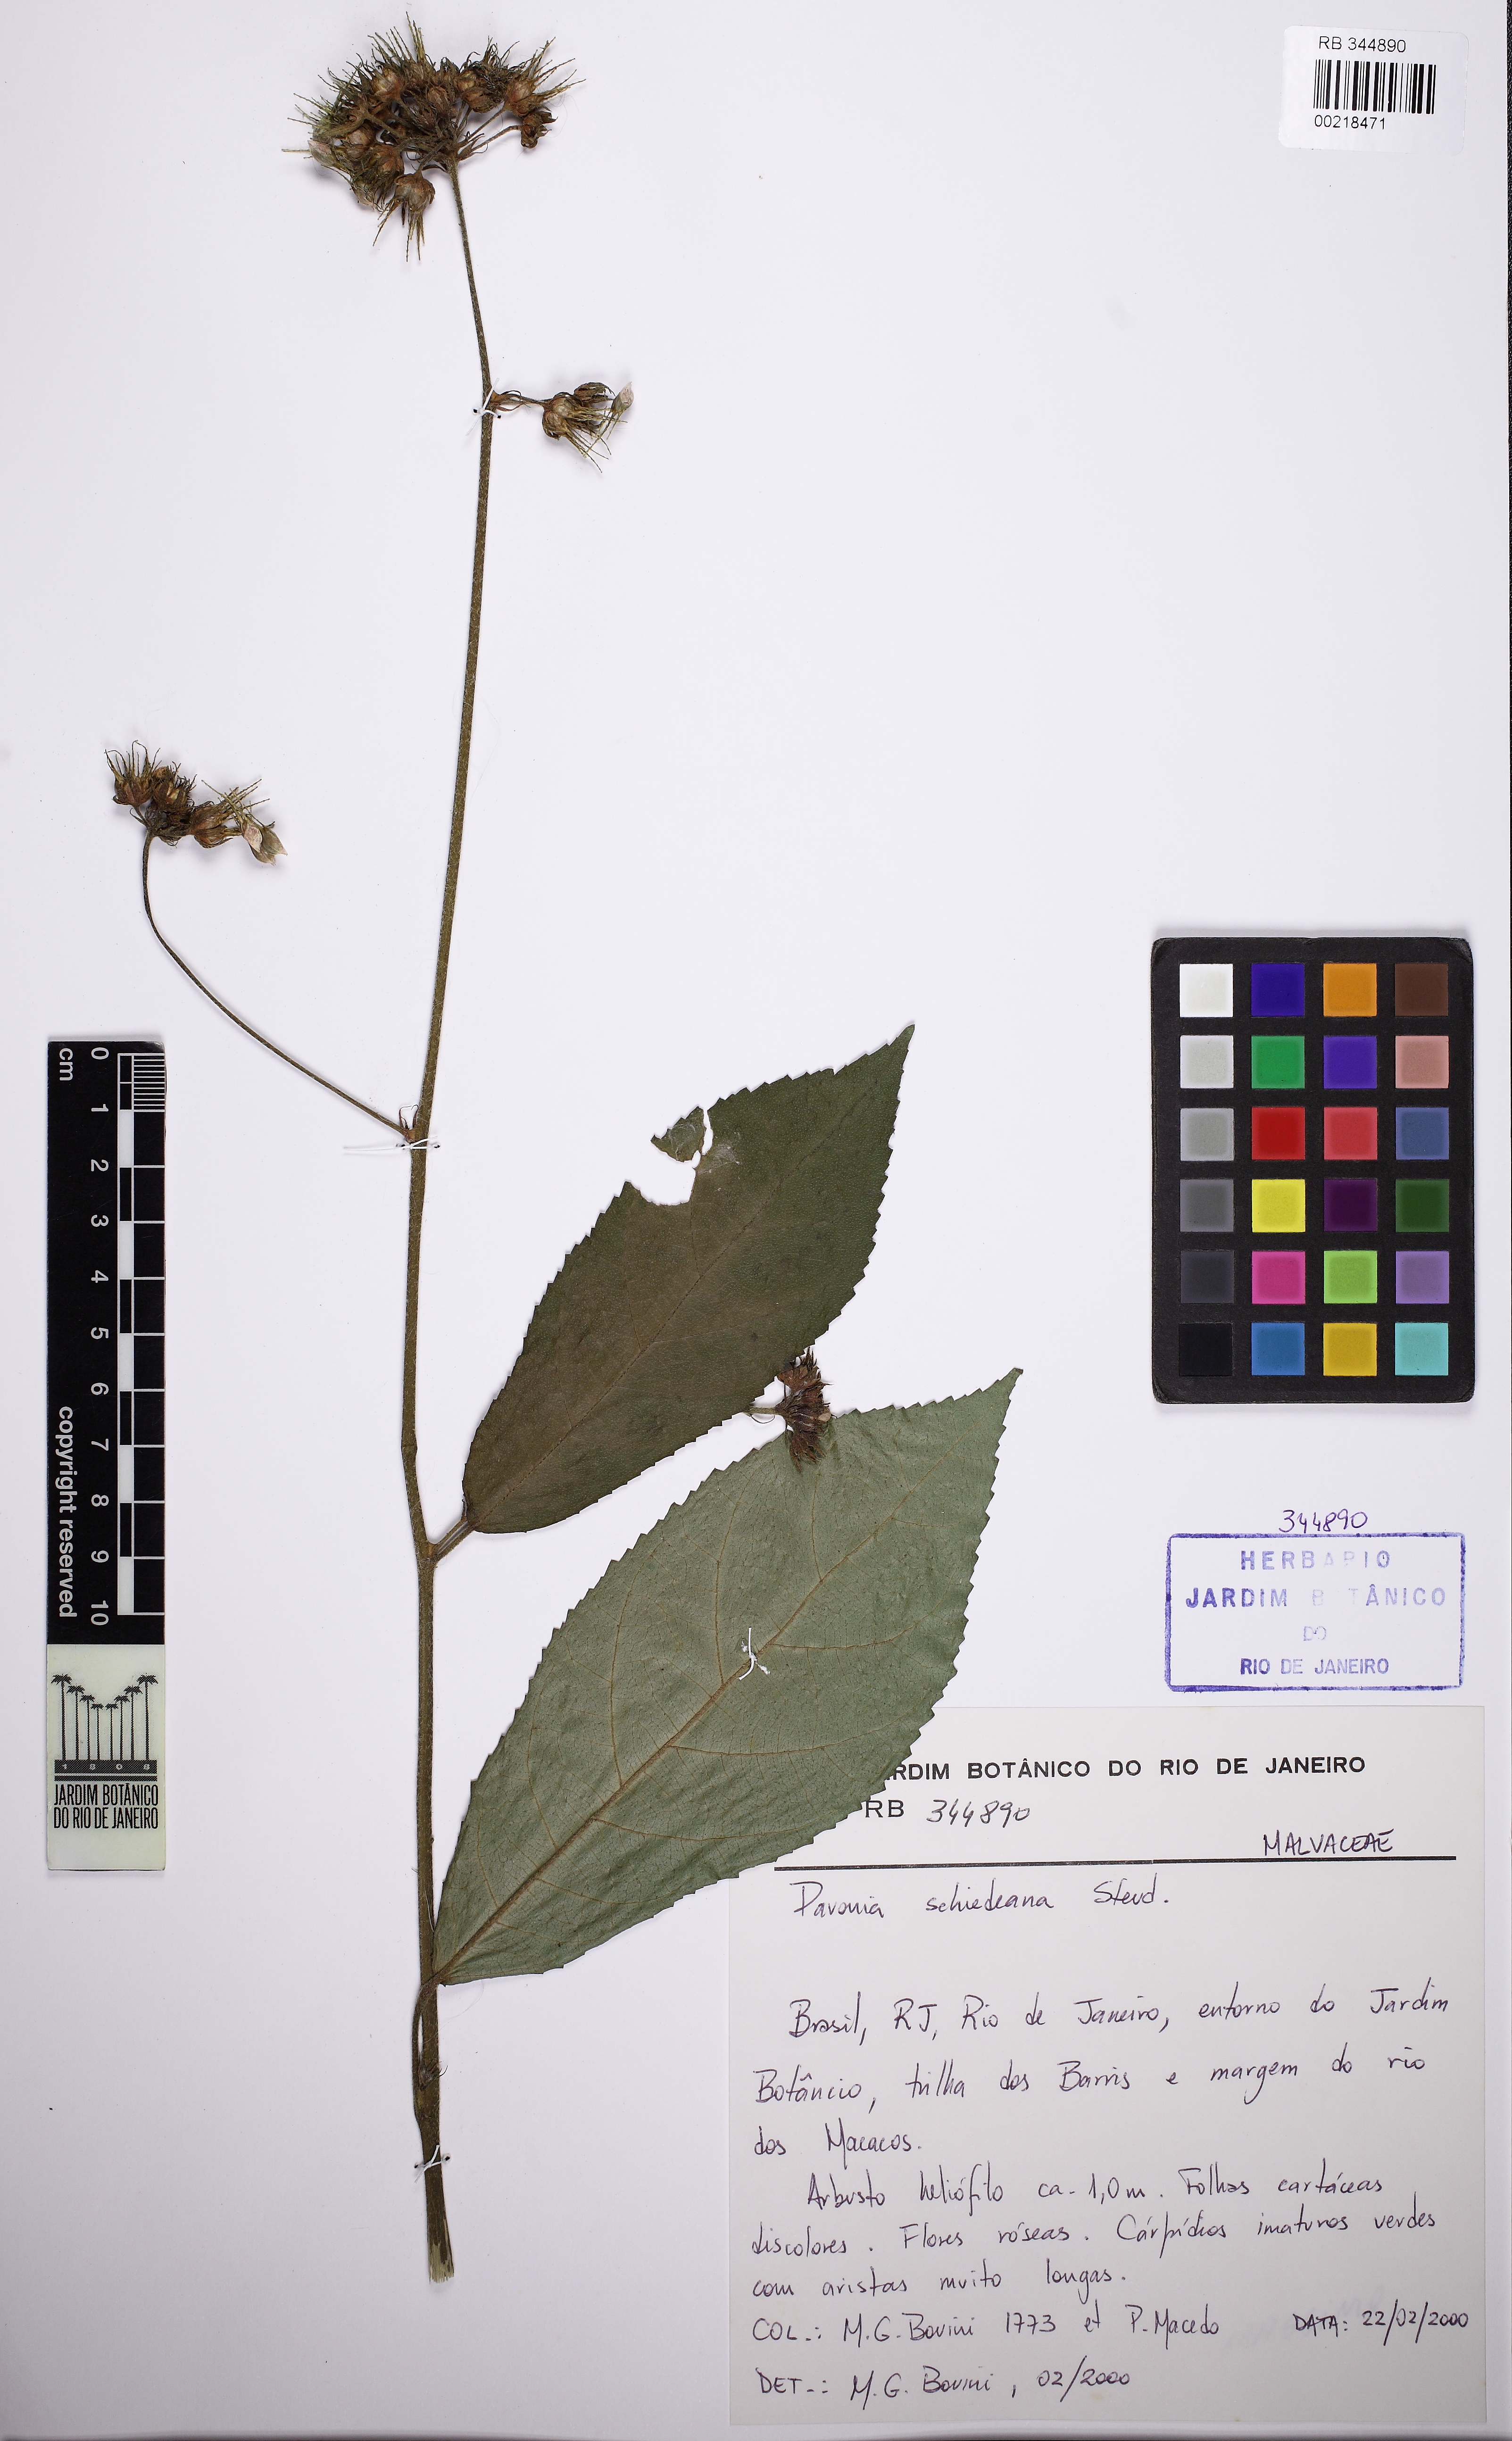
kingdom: Plantae
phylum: Tracheophyta
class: Magnoliopsida
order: Malvales
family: Malvaceae
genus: Pavonia
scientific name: Pavonia schiedeana
